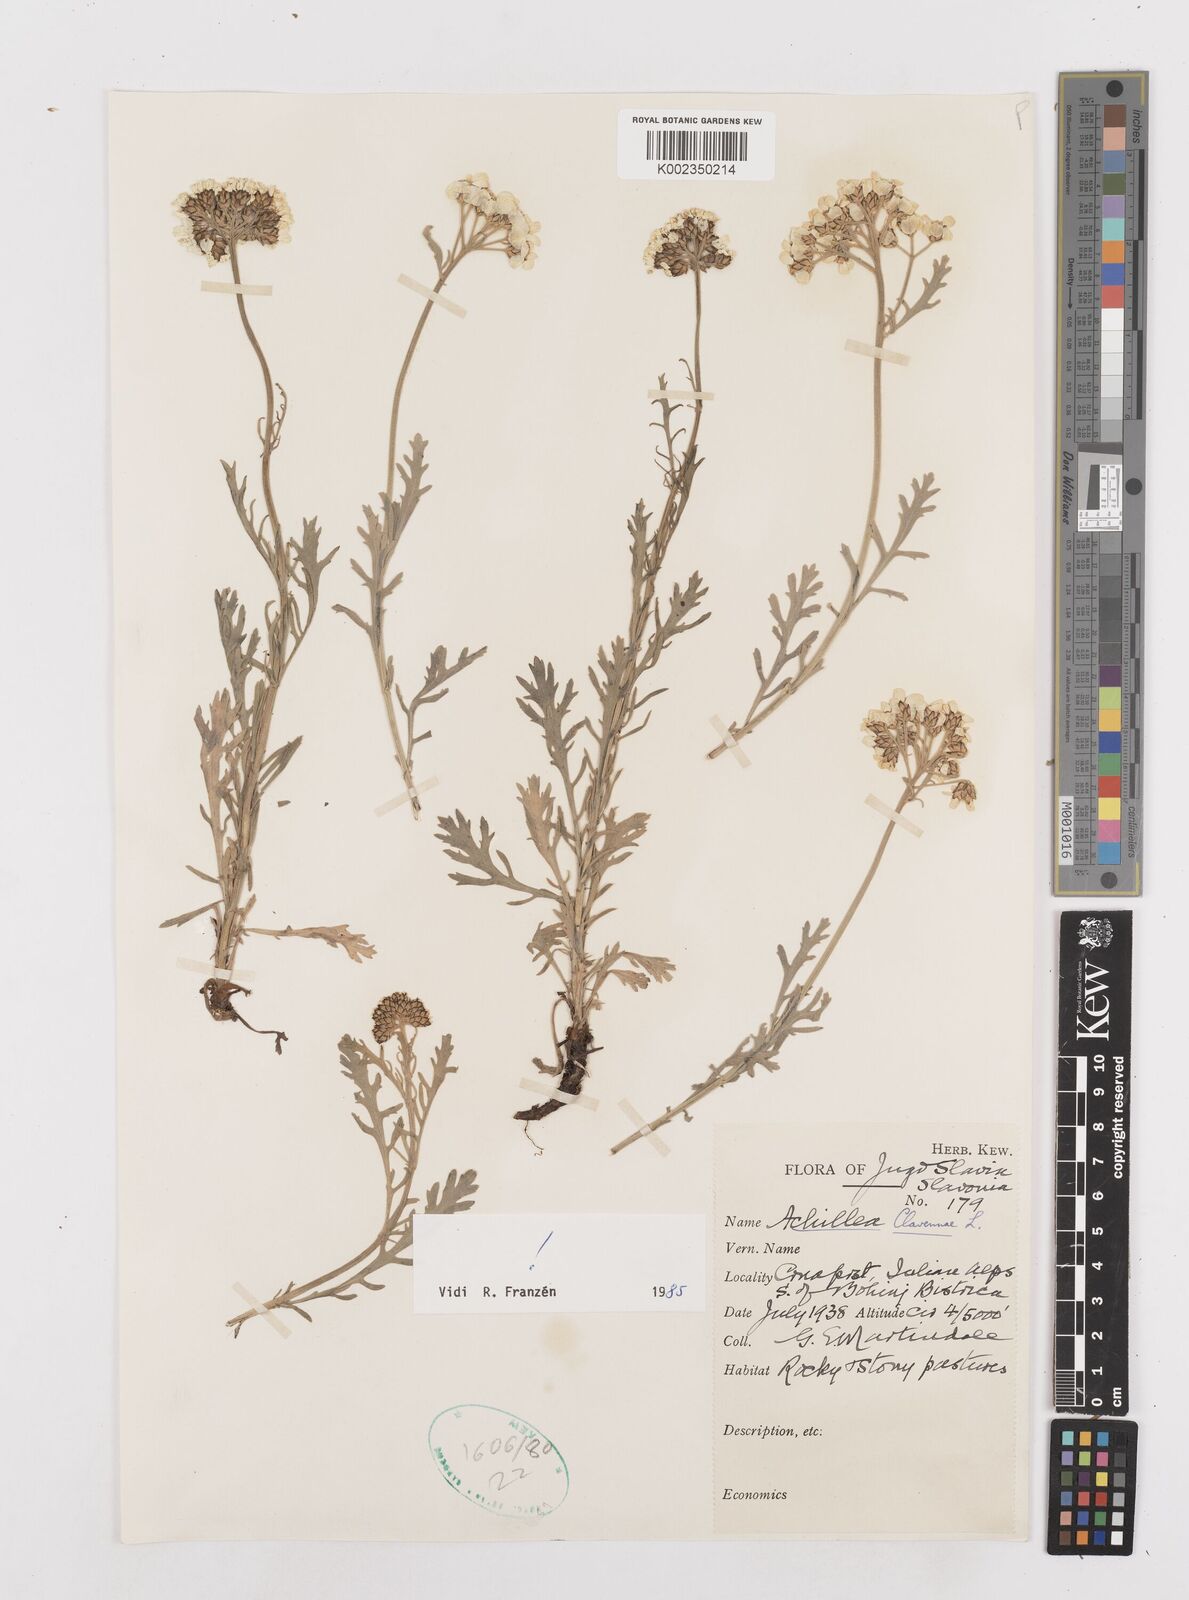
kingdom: Plantae
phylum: Tracheophyta
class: Magnoliopsida
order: Asterales
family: Asteraceae
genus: Achillea
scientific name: Achillea clavennae
